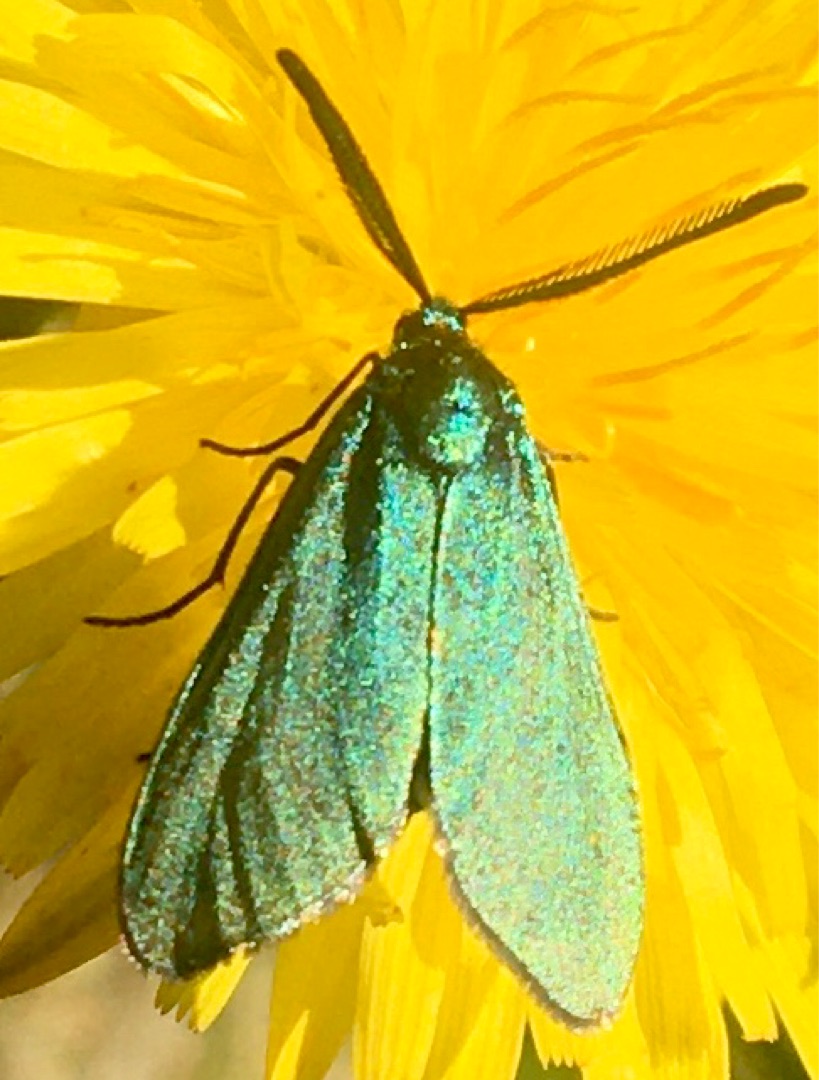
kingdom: Animalia
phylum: Arthropoda
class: Insecta
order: Lepidoptera
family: Zygaenidae
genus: Adscita
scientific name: Adscita statices
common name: Metalvinge
